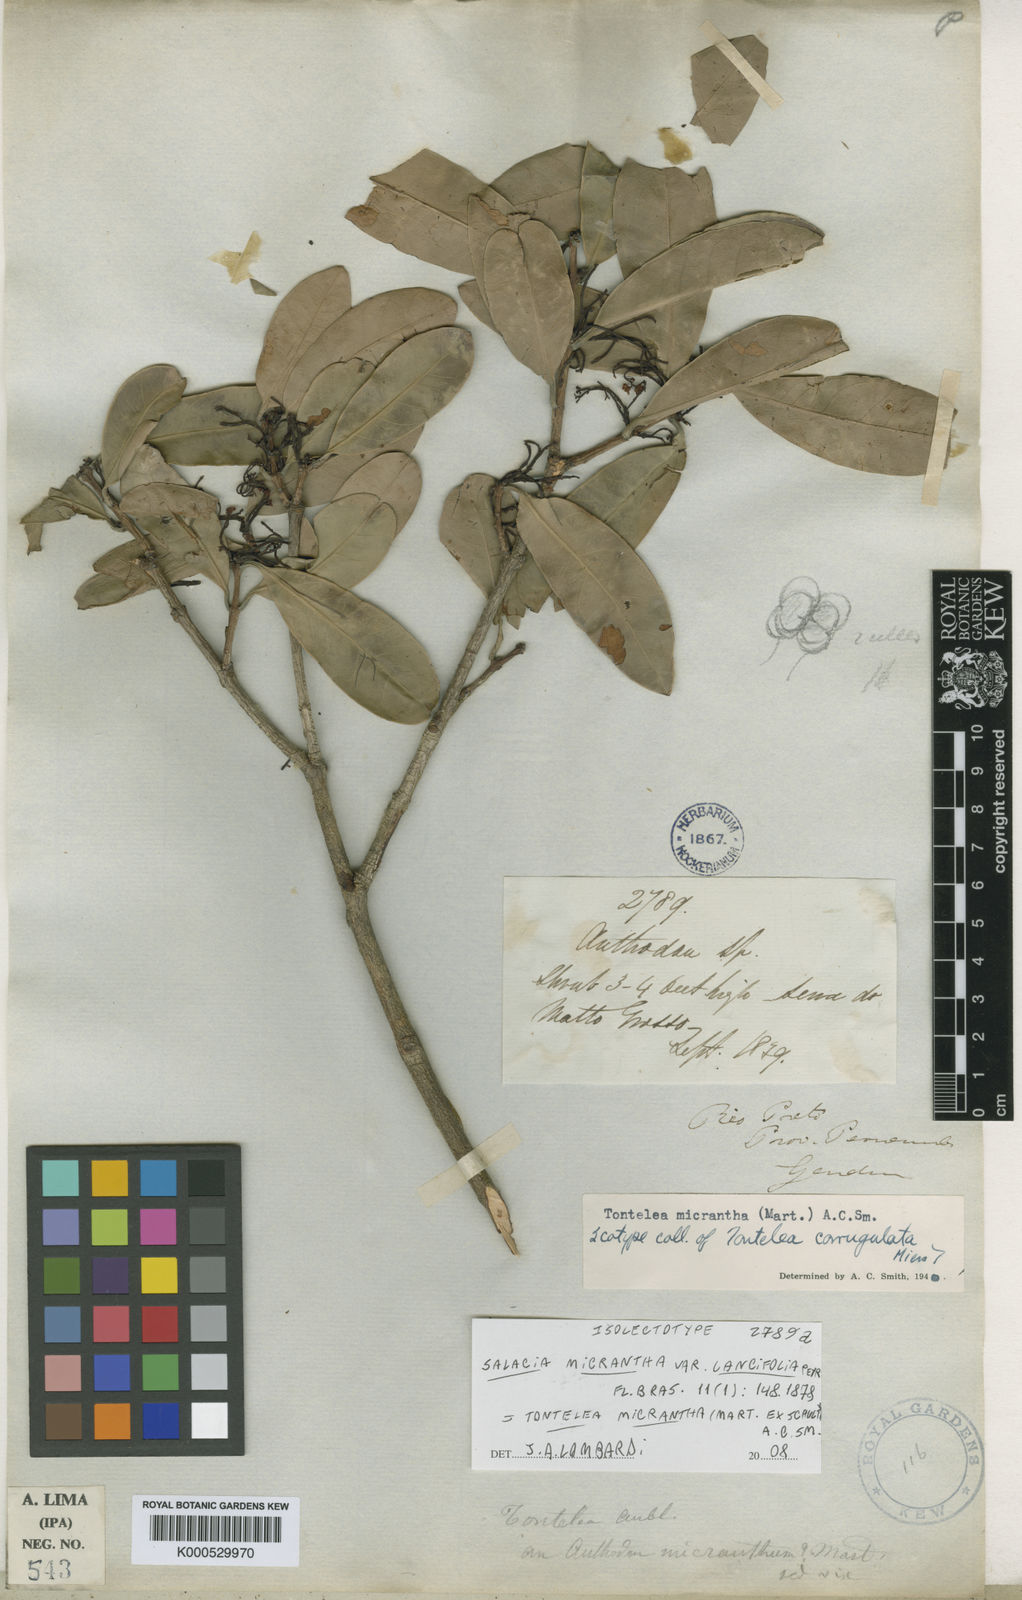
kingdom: Plantae
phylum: Tracheophyta
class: Magnoliopsida
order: Celastrales
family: Celastraceae
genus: Tontelea
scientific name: Tontelea micrantha
